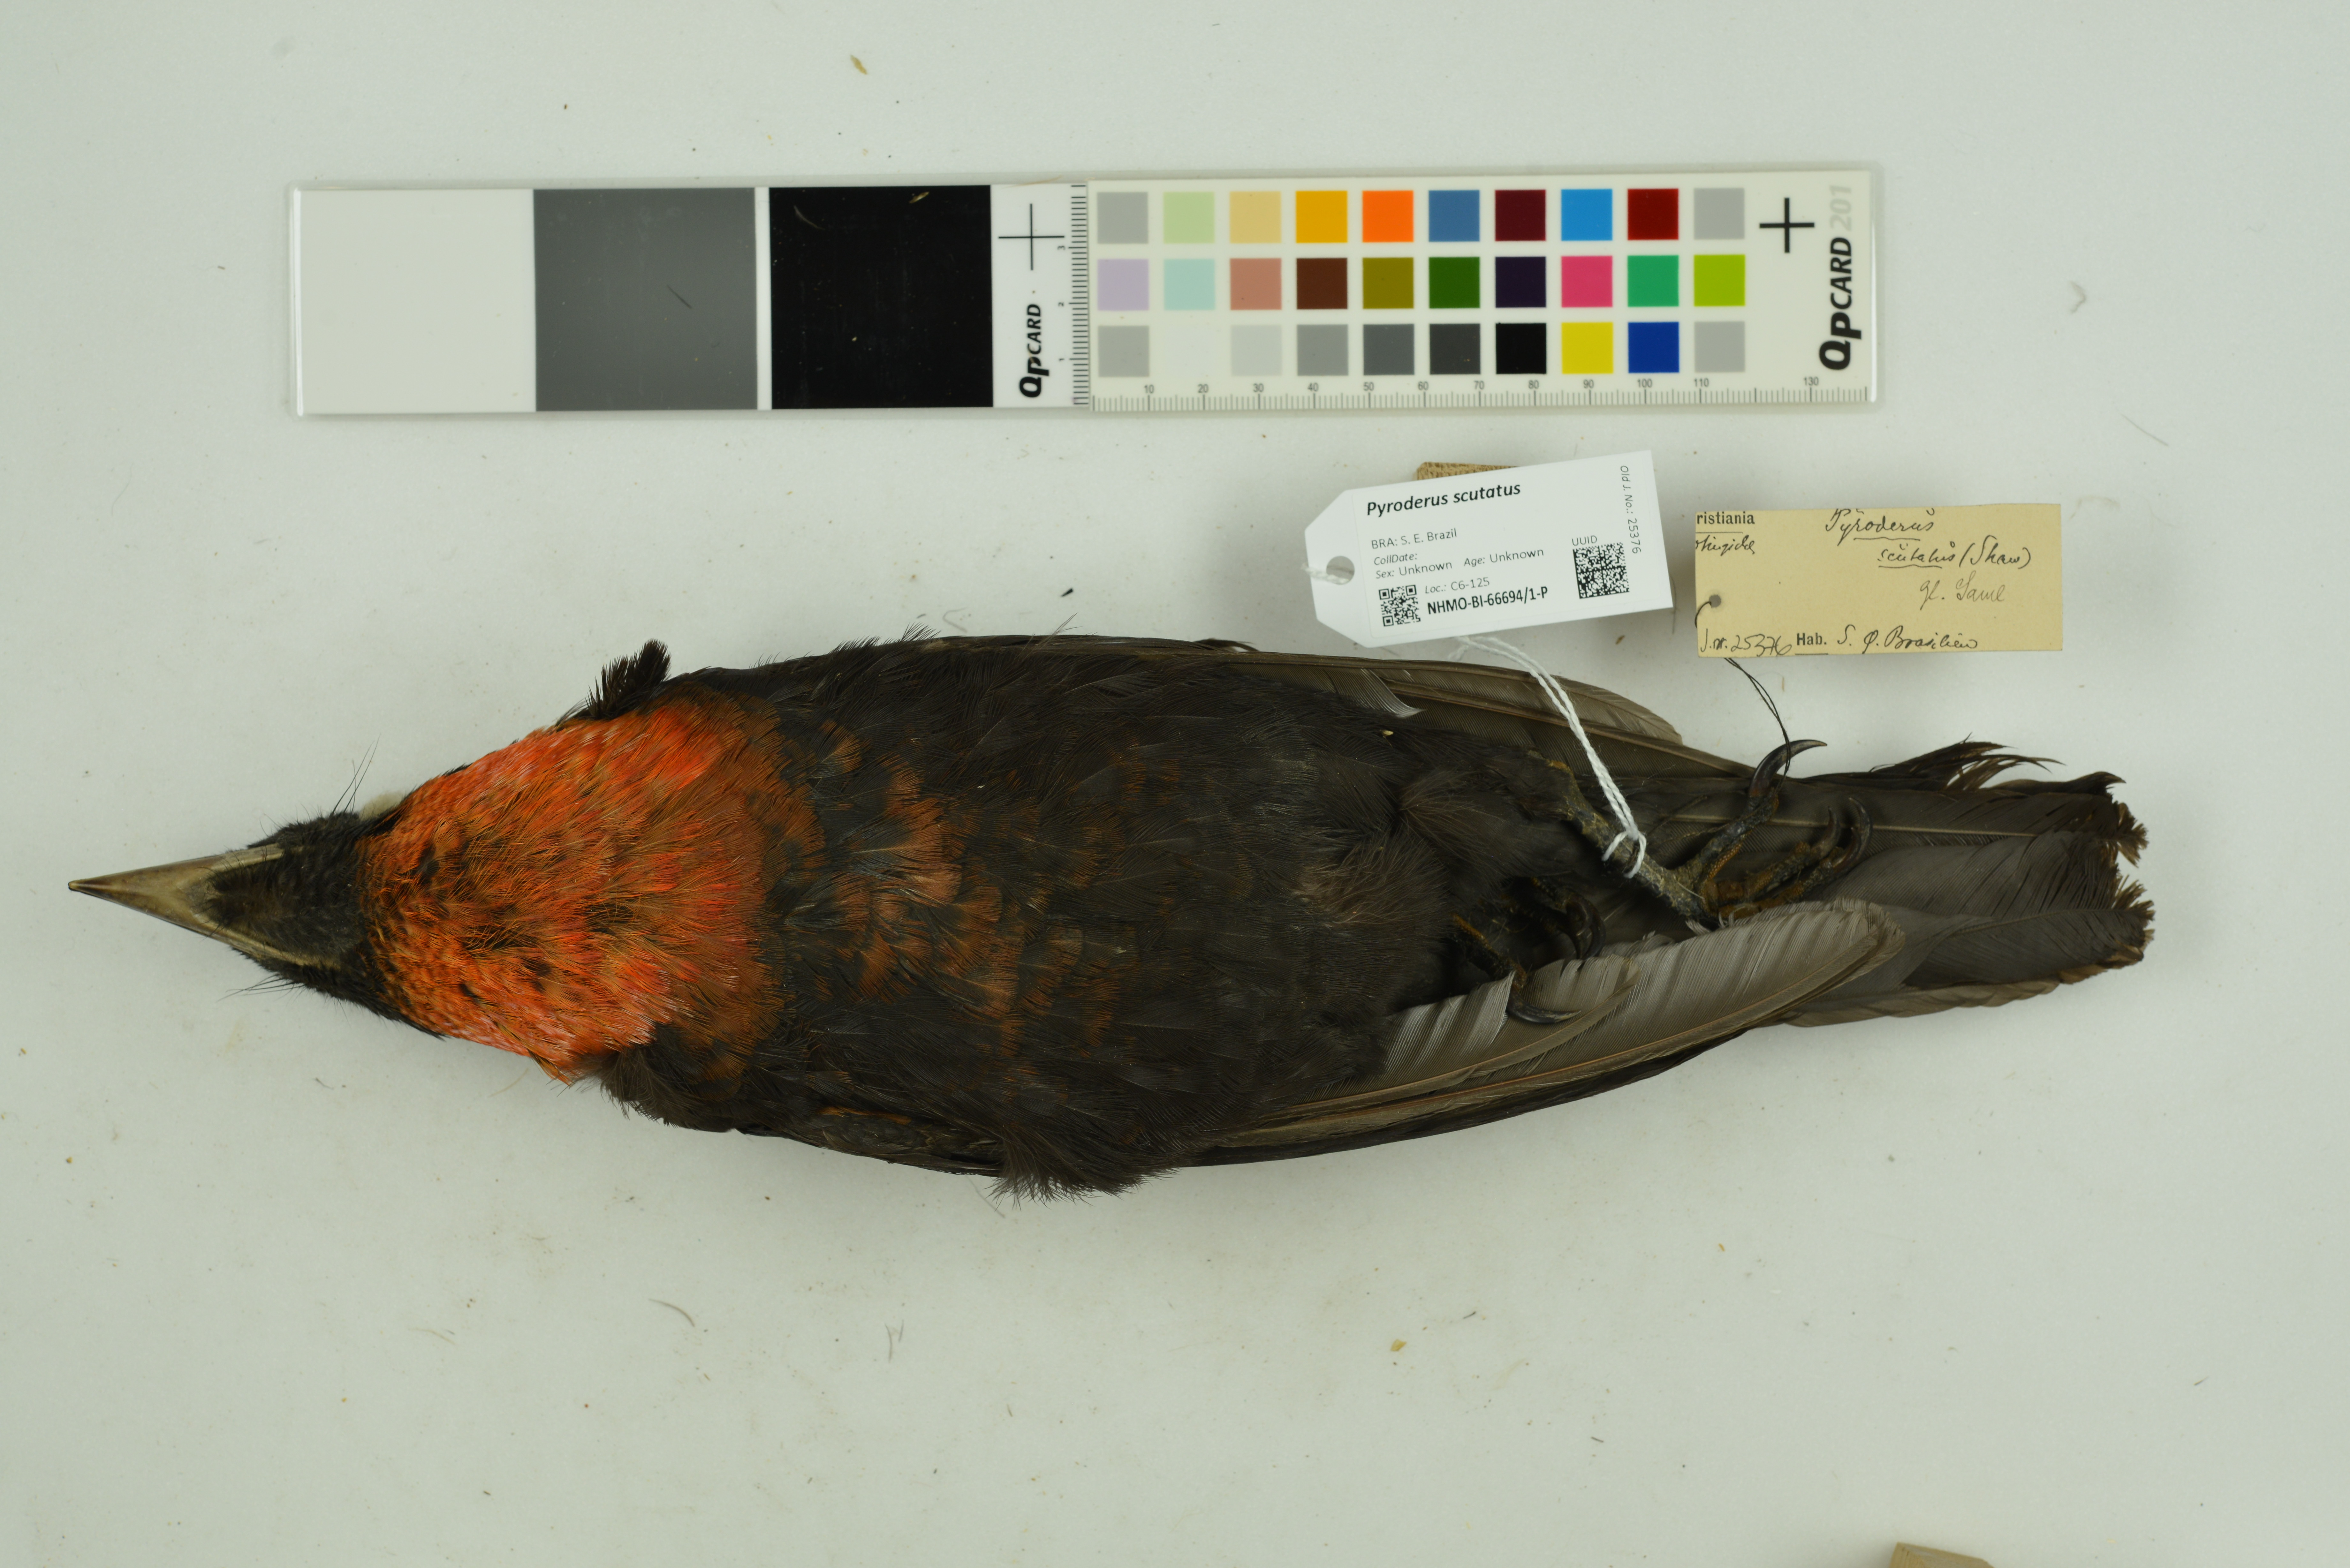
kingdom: Animalia
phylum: Chordata
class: Aves
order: Passeriformes
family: Cotingidae
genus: Pyroderus
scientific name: Pyroderus scutatus
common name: Red-ruffed fruitcrow
